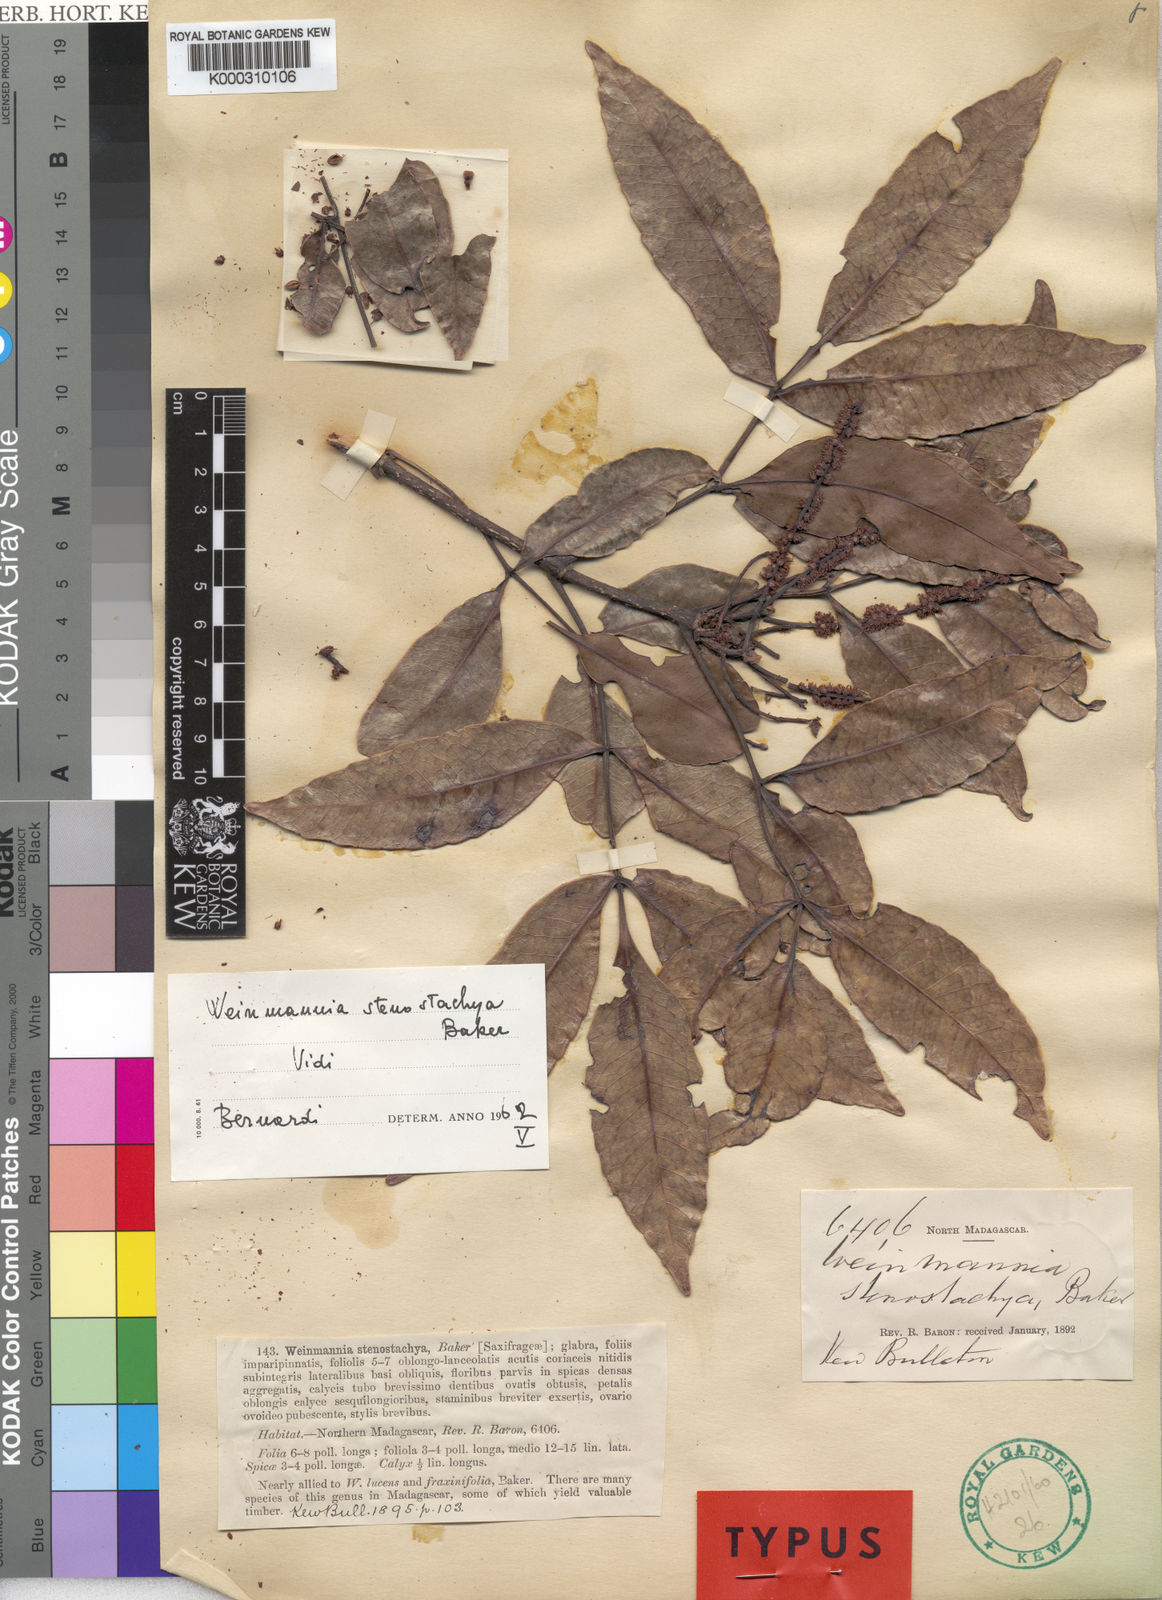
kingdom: Plantae
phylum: Tracheophyta
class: Magnoliopsida
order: Oxalidales
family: Cunoniaceae
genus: Pterophylla
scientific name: Pterophylla stenostachya
